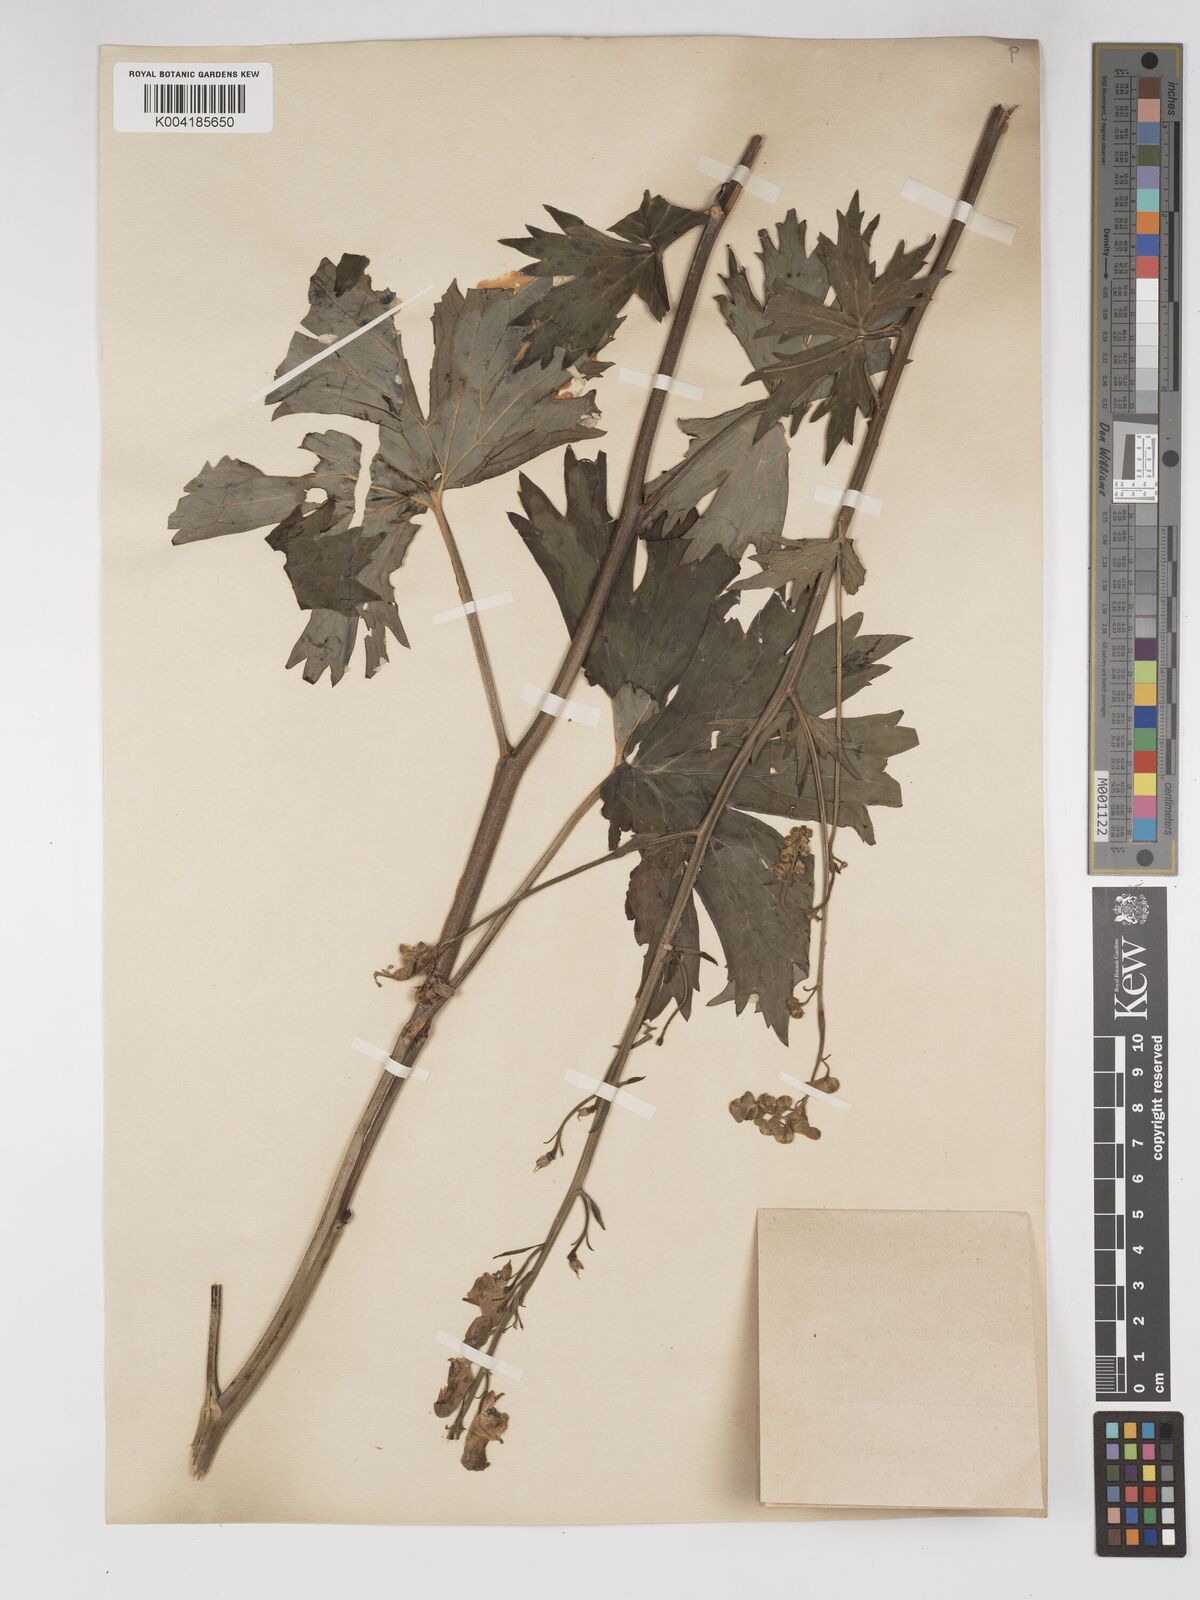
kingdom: Plantae
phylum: Tracheophyta
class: Magnoliopsida
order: Ranunculales
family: Ranunculaceae
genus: Aconitum
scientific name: Aconitum lycoctonum
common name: Wolf's-bane
